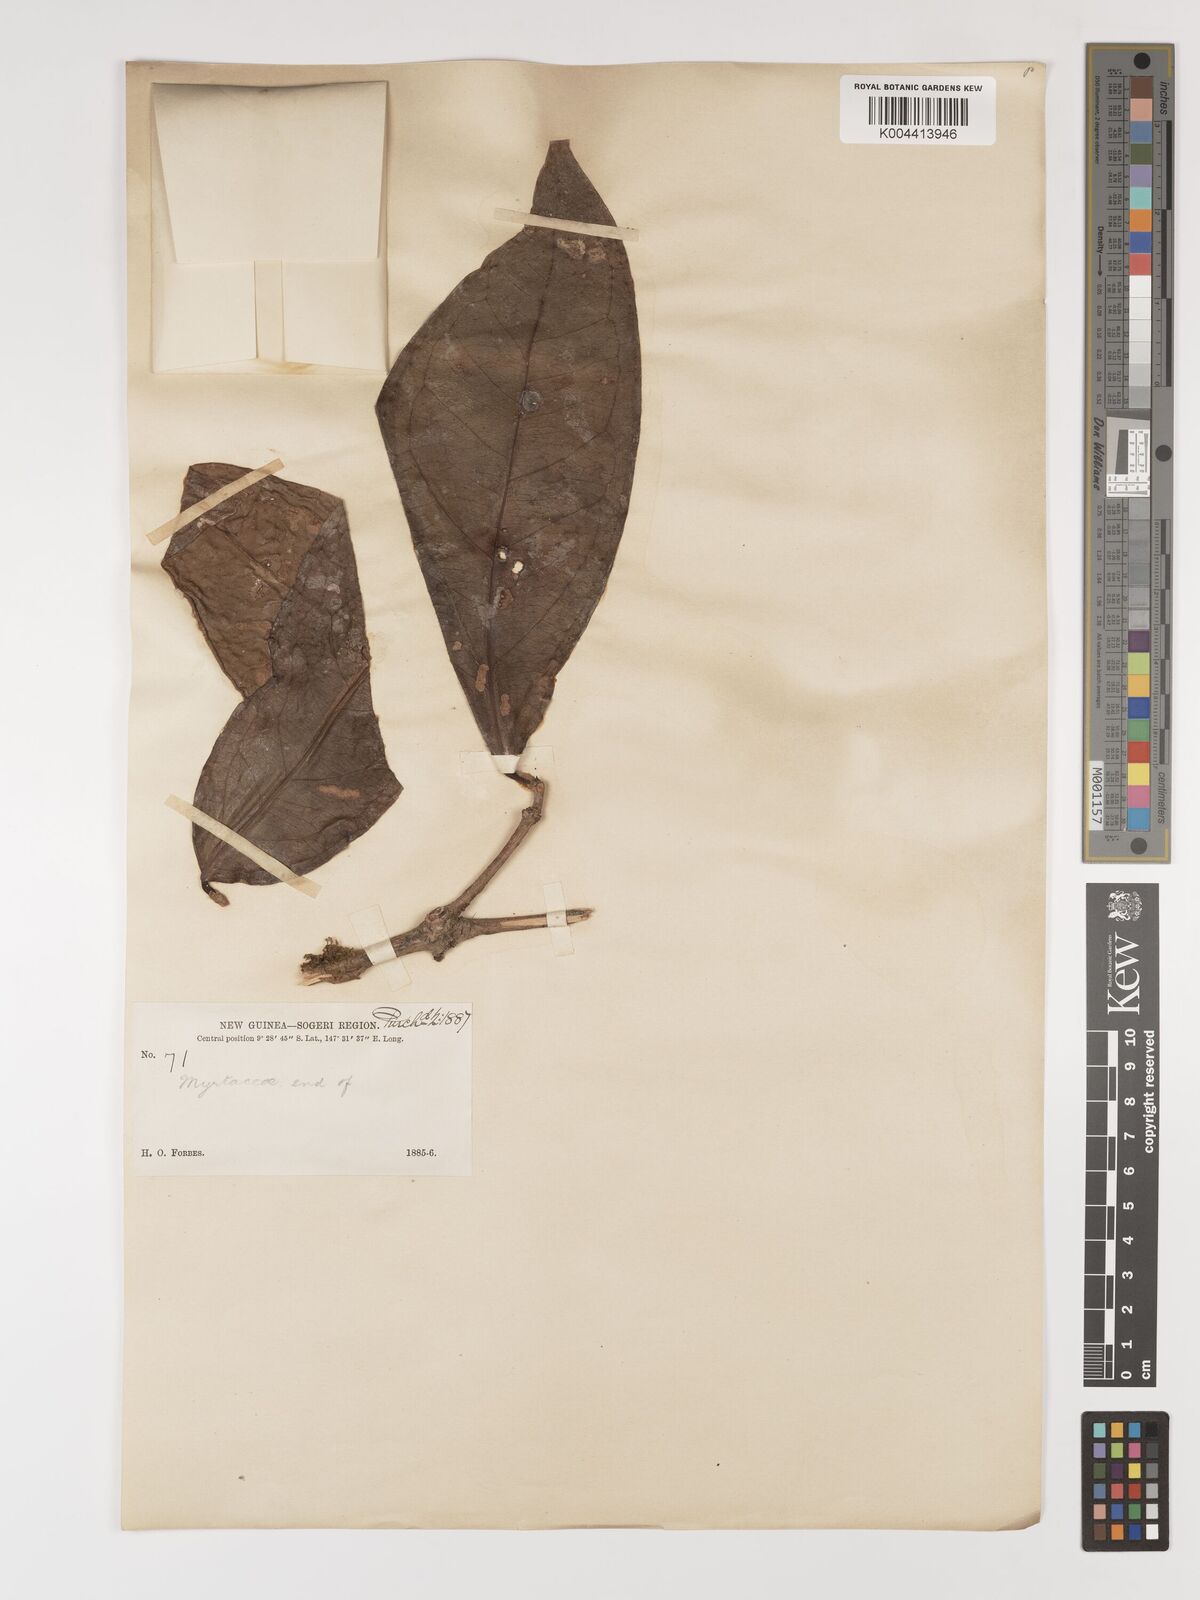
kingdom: Plantae
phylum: Tracheophyta
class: Magnoliopsida
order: Myrtales
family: Myrtaceae
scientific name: Myrtaceae
